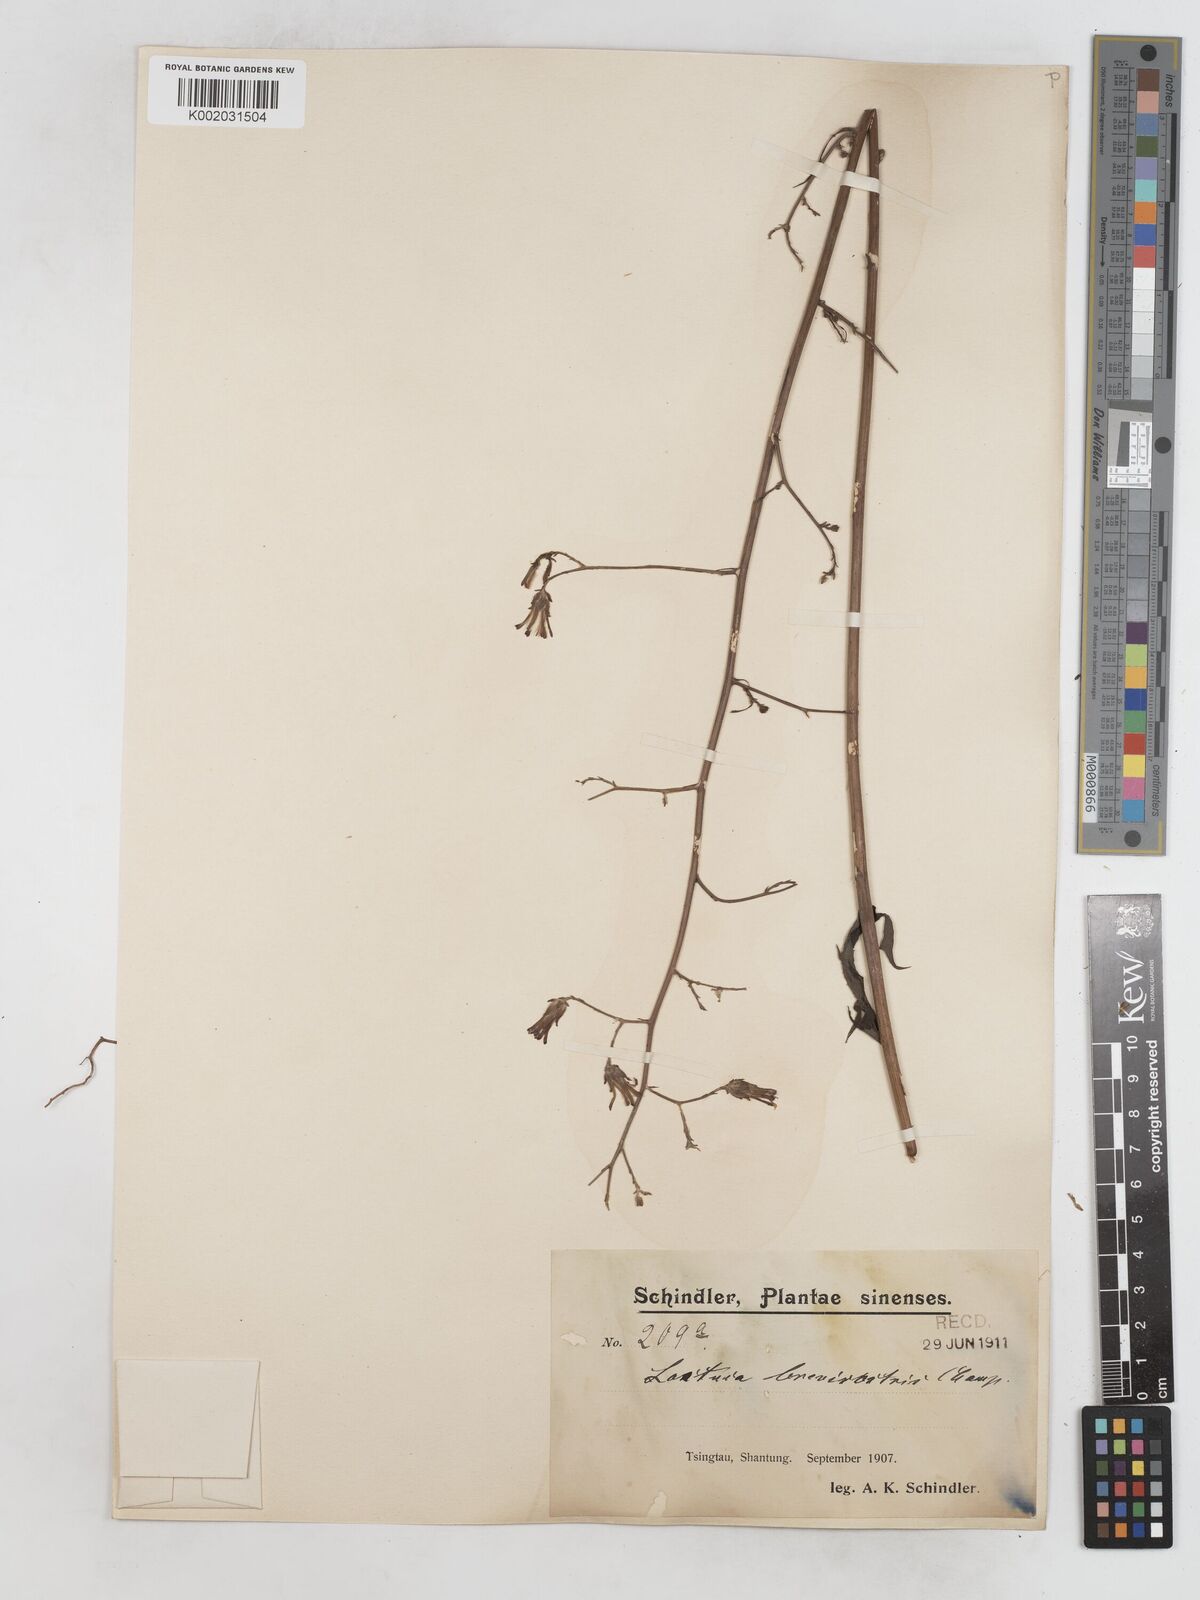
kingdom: Plantae
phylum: Tracheophyta
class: Magnoliopsida
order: Asterales
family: Asteraceae
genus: Lactuca
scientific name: Lactuca indica
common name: Wild lettuce
